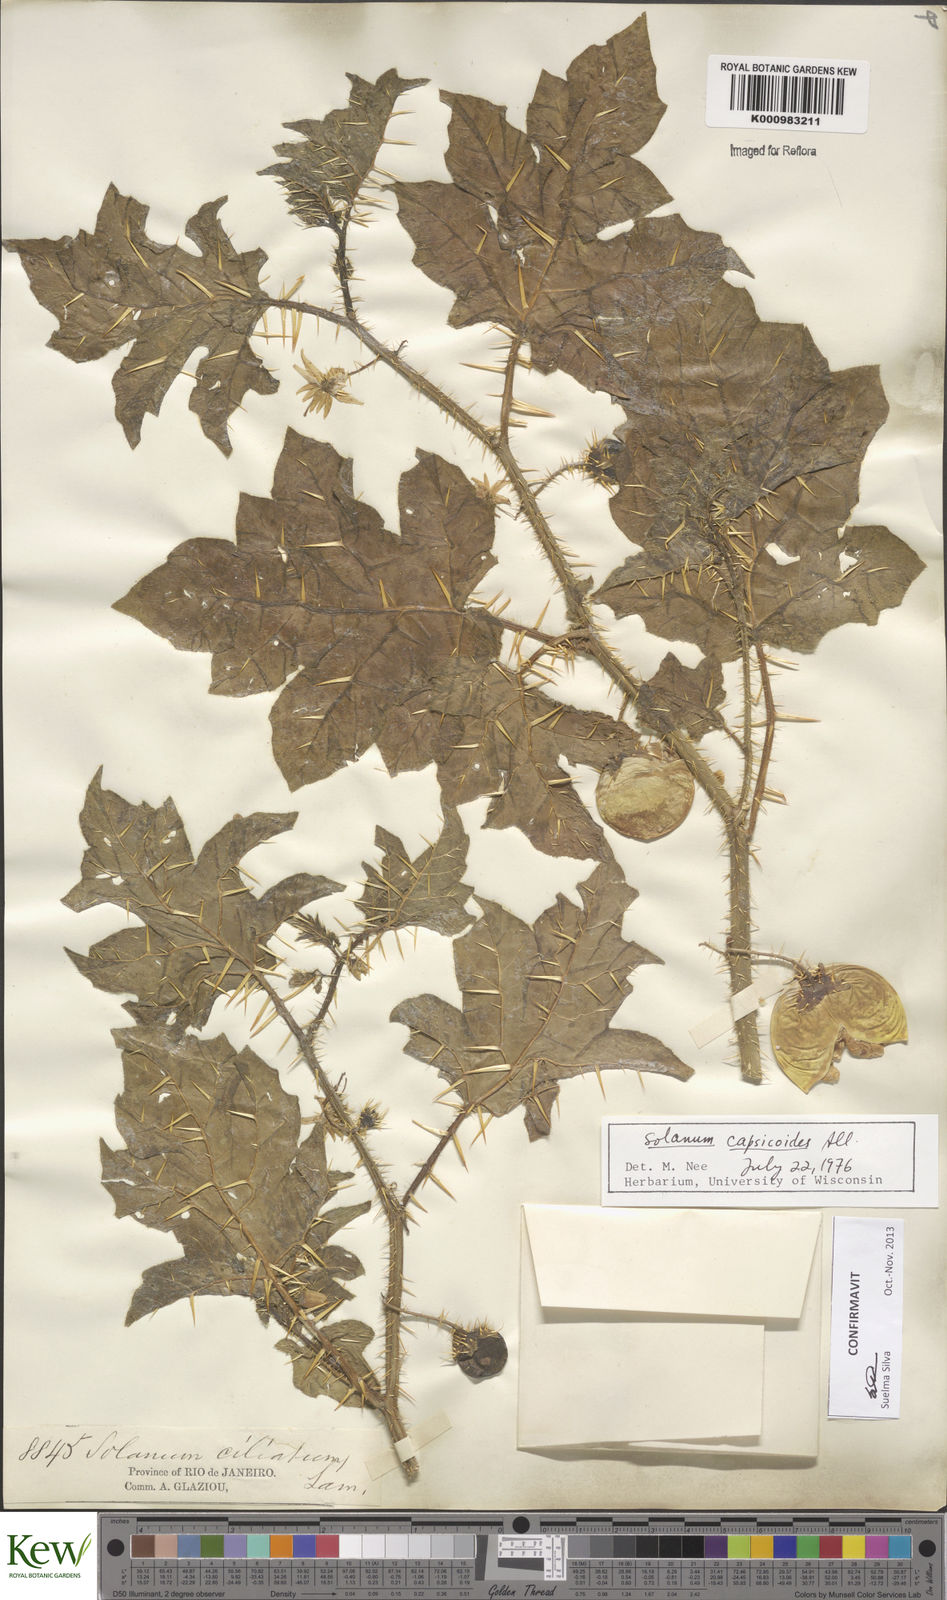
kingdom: Plantae
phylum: Tracheophyta
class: Magnoliopsida
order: Solanales
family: Solanaceae
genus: Solanum
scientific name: Solanum capsicoides
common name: Cockroach berry
